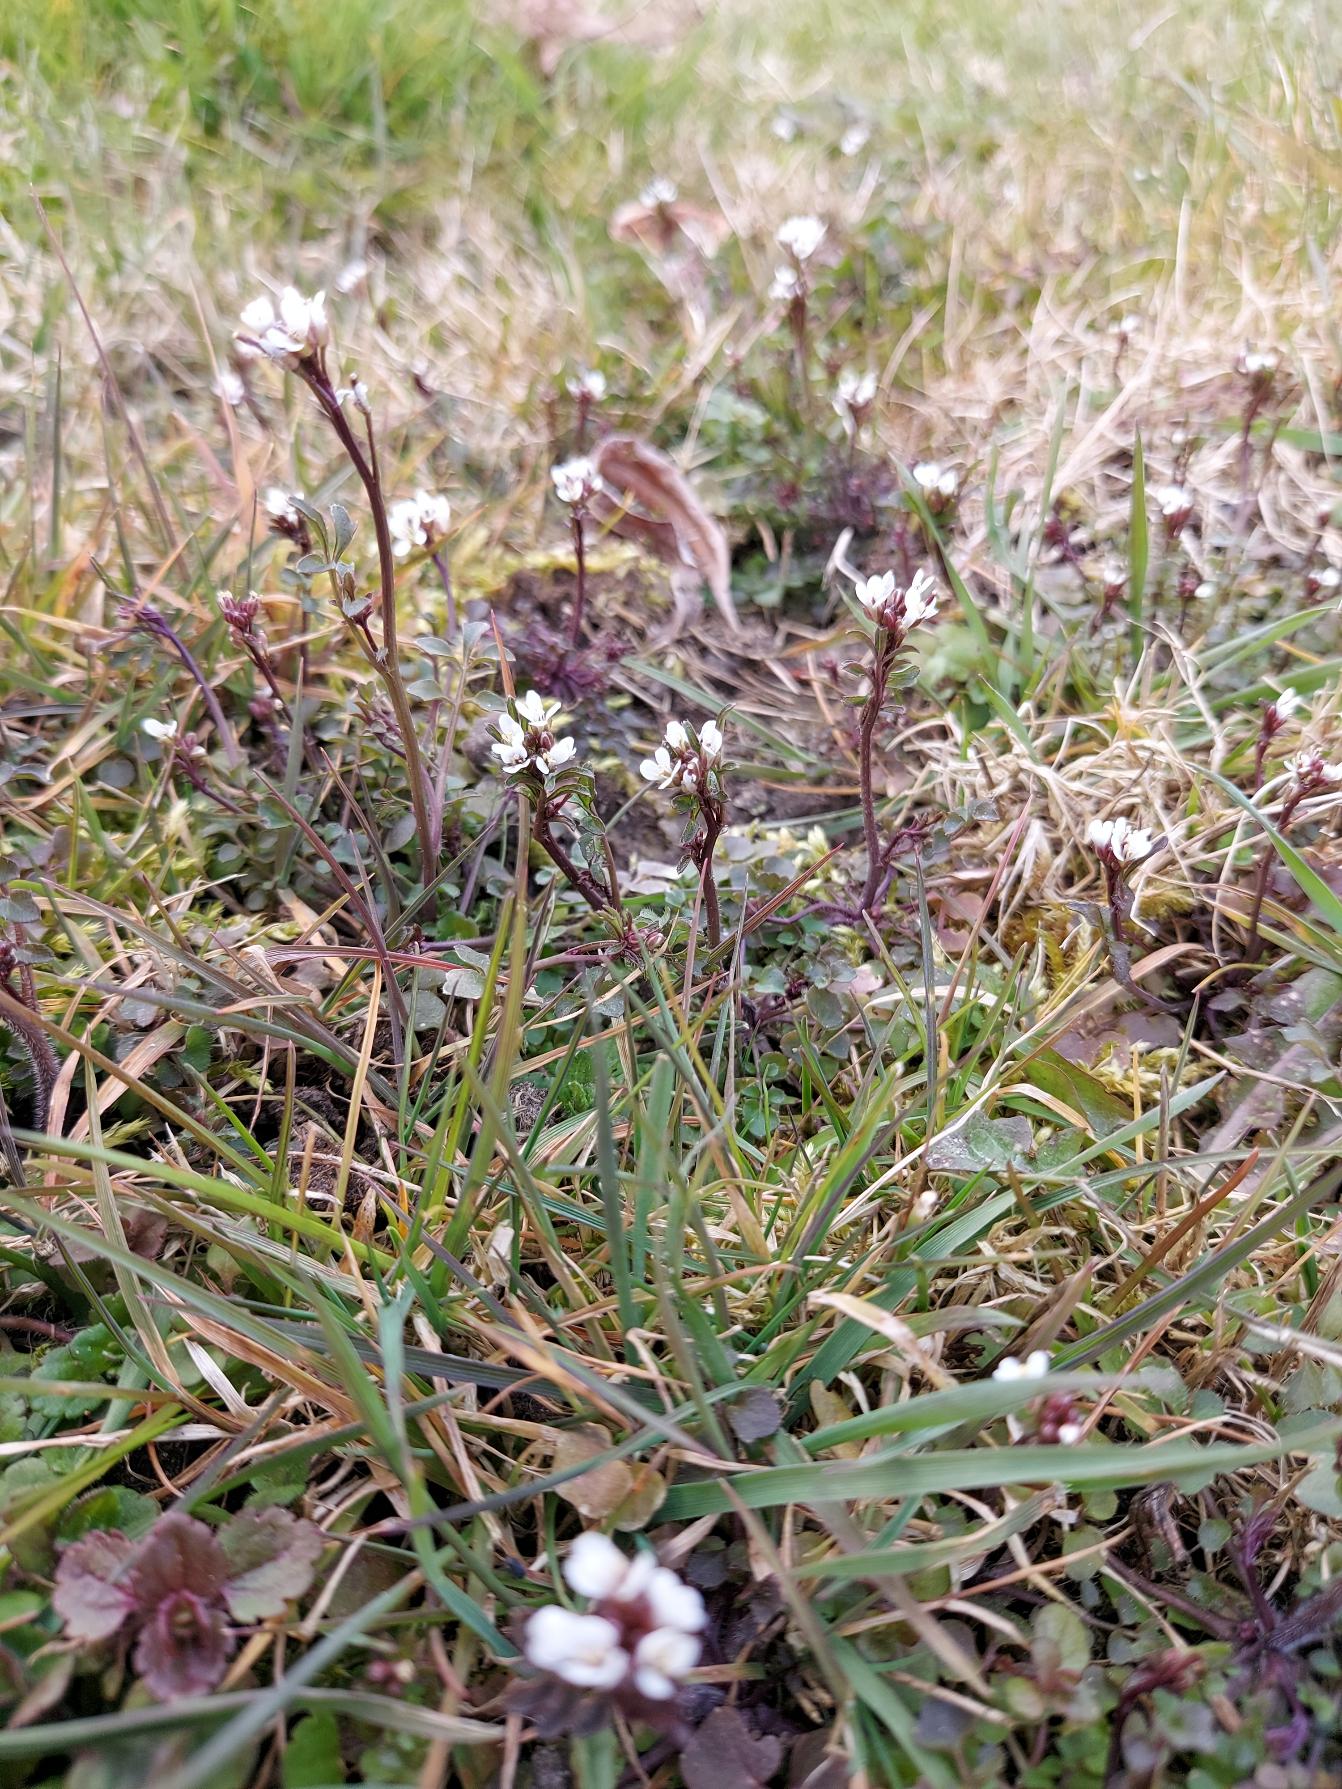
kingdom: Plantae
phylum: Tracheophyta
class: Magnoliopsida
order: Brassicales
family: Brassicaceae
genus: Cardamine
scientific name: Cardamine hirsuta
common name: Roset-springklap
